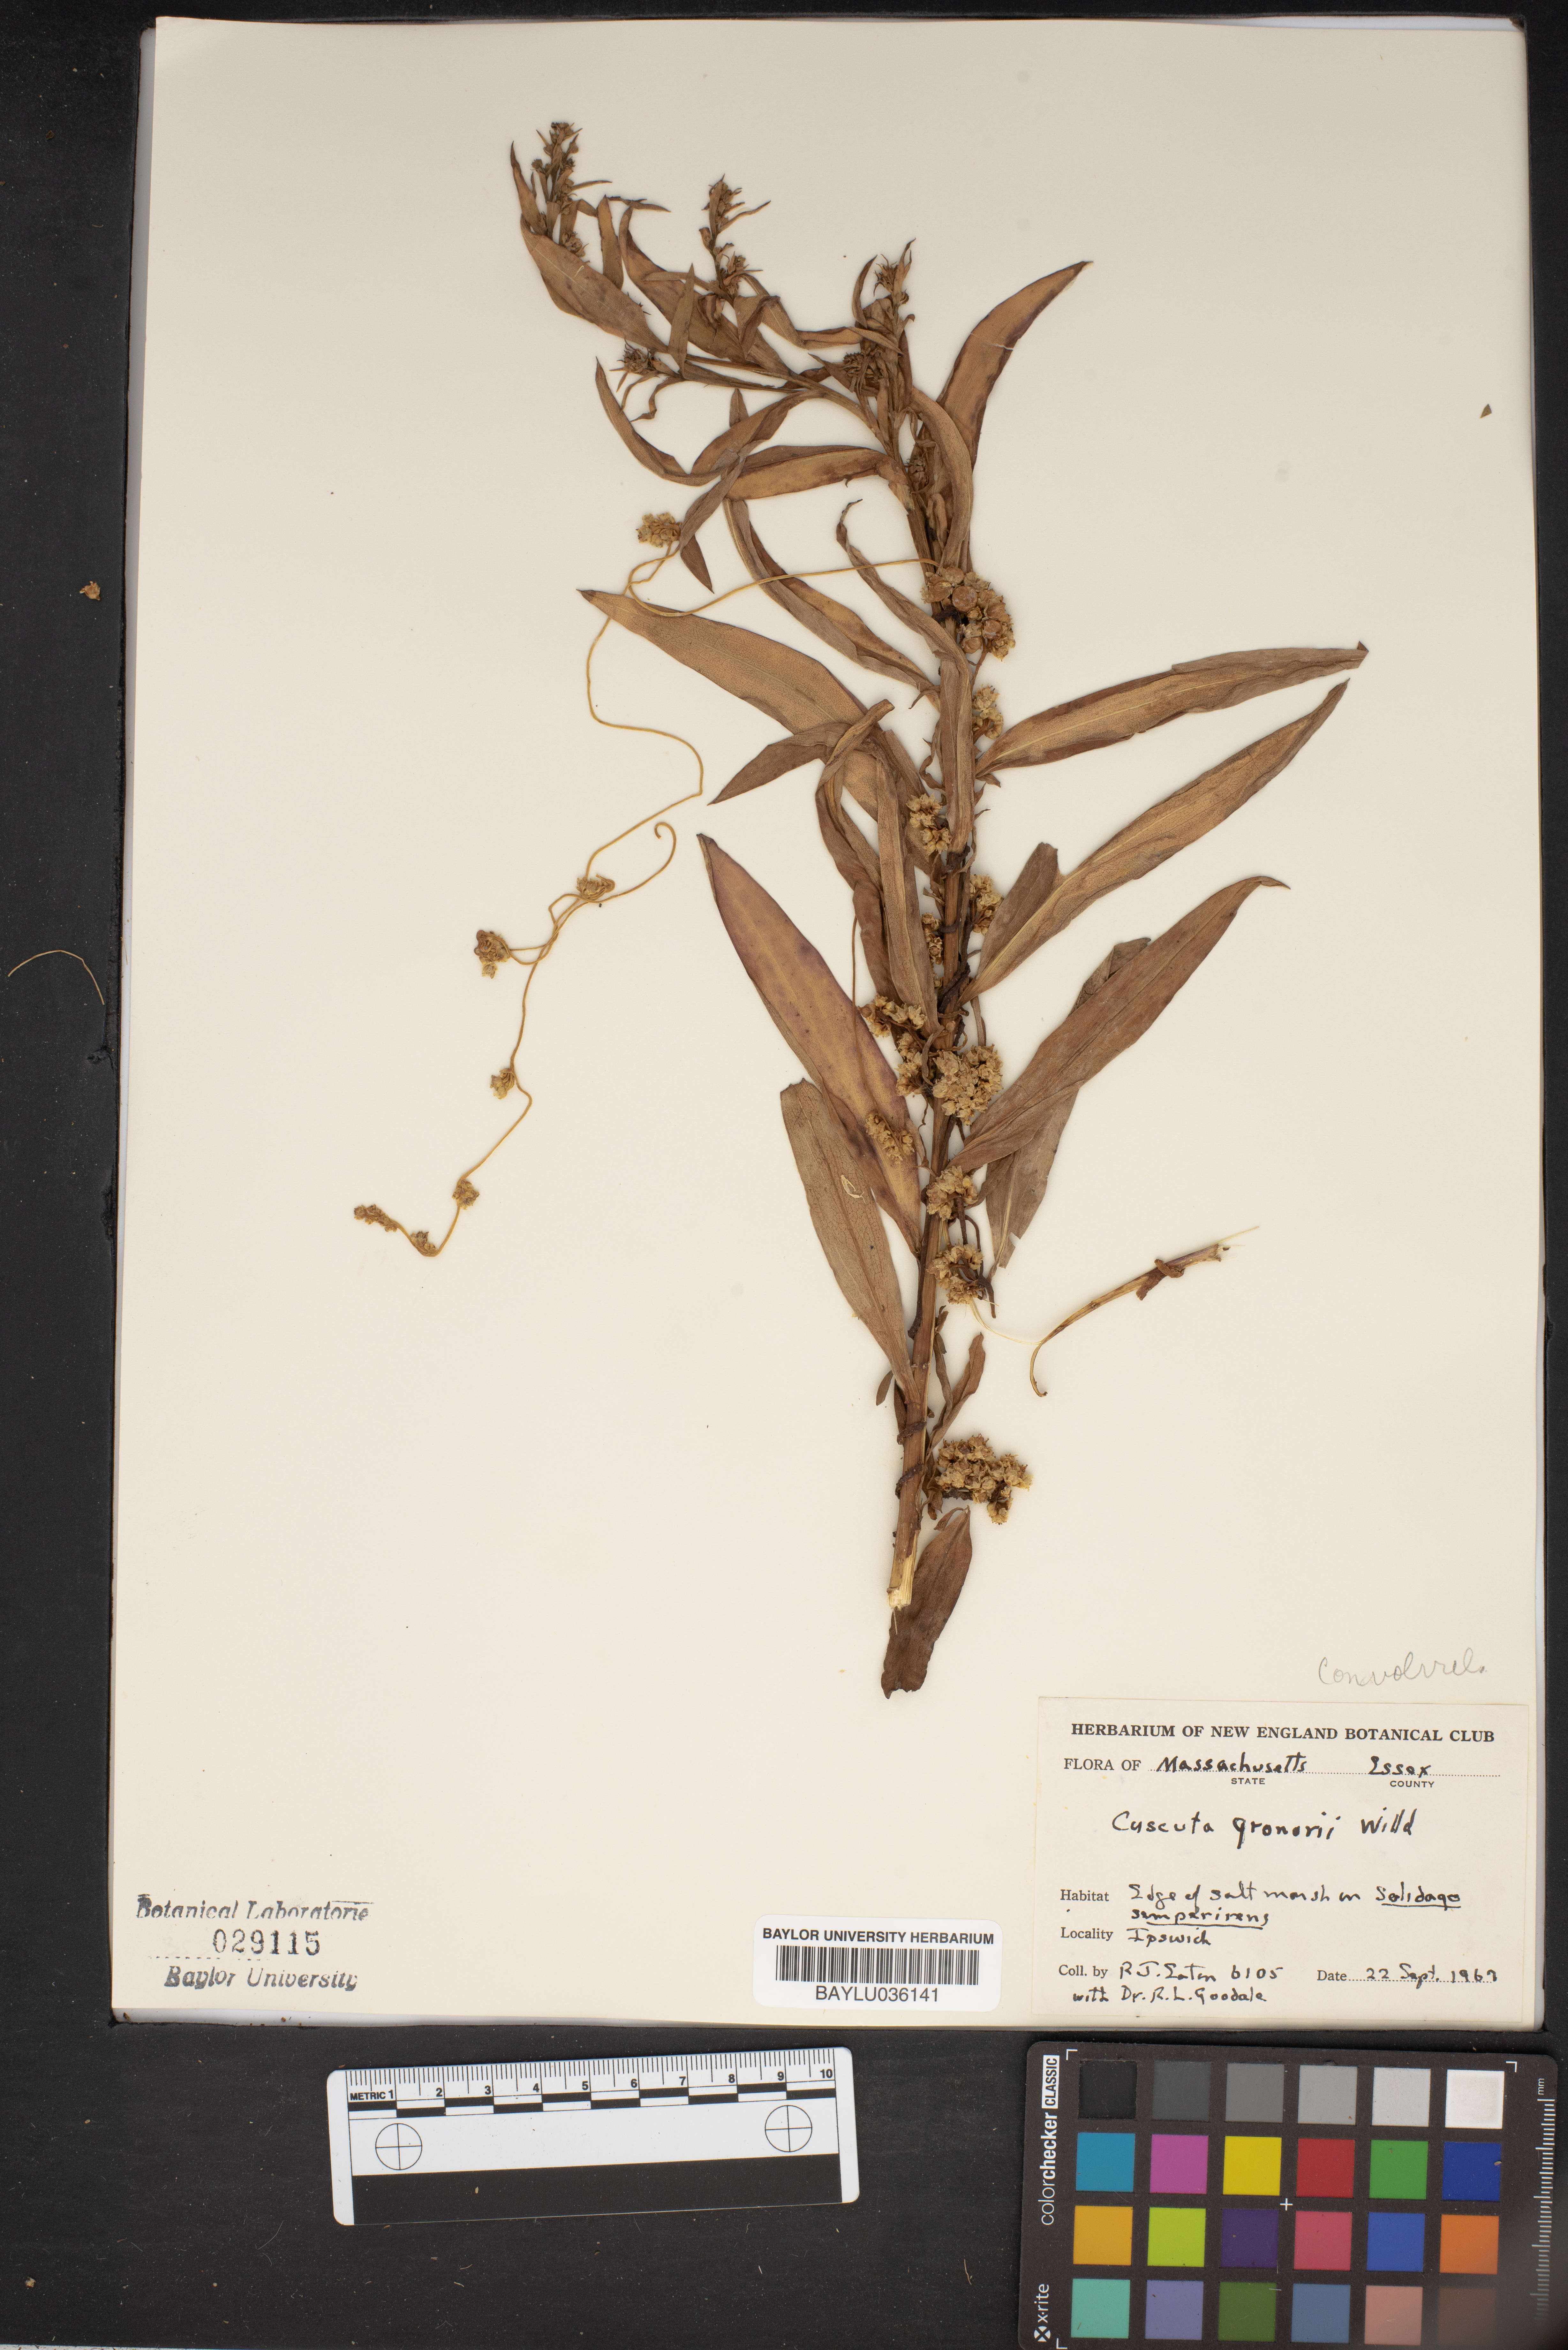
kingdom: Plantae
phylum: Tracheophyta
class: Magnoliopsida
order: Solanales
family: Convolvulaceae
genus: Cuscuta
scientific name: Cuscuta gronovii
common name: Common dodder
